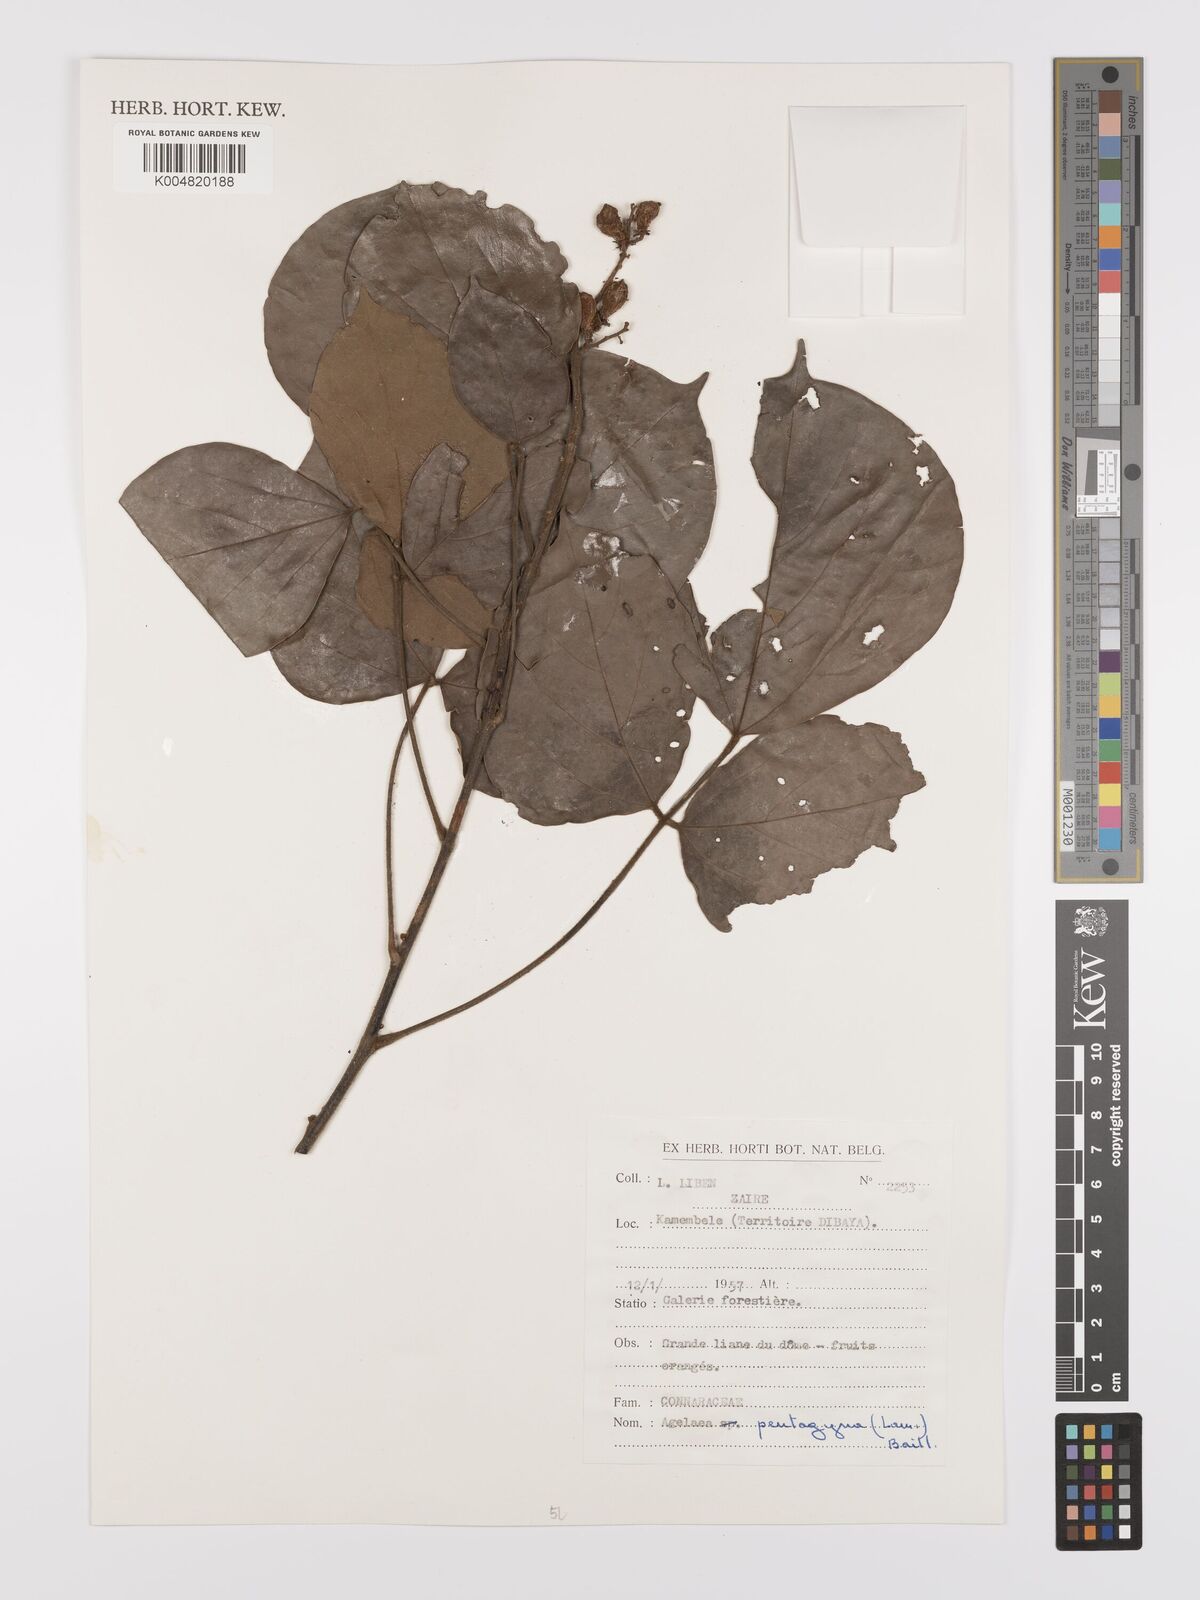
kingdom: Plantae
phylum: Tracheophyta
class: Magnoliopsida
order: Oxalidales
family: Connaraceae
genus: Agelaea
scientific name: Agelaea pentagyna
